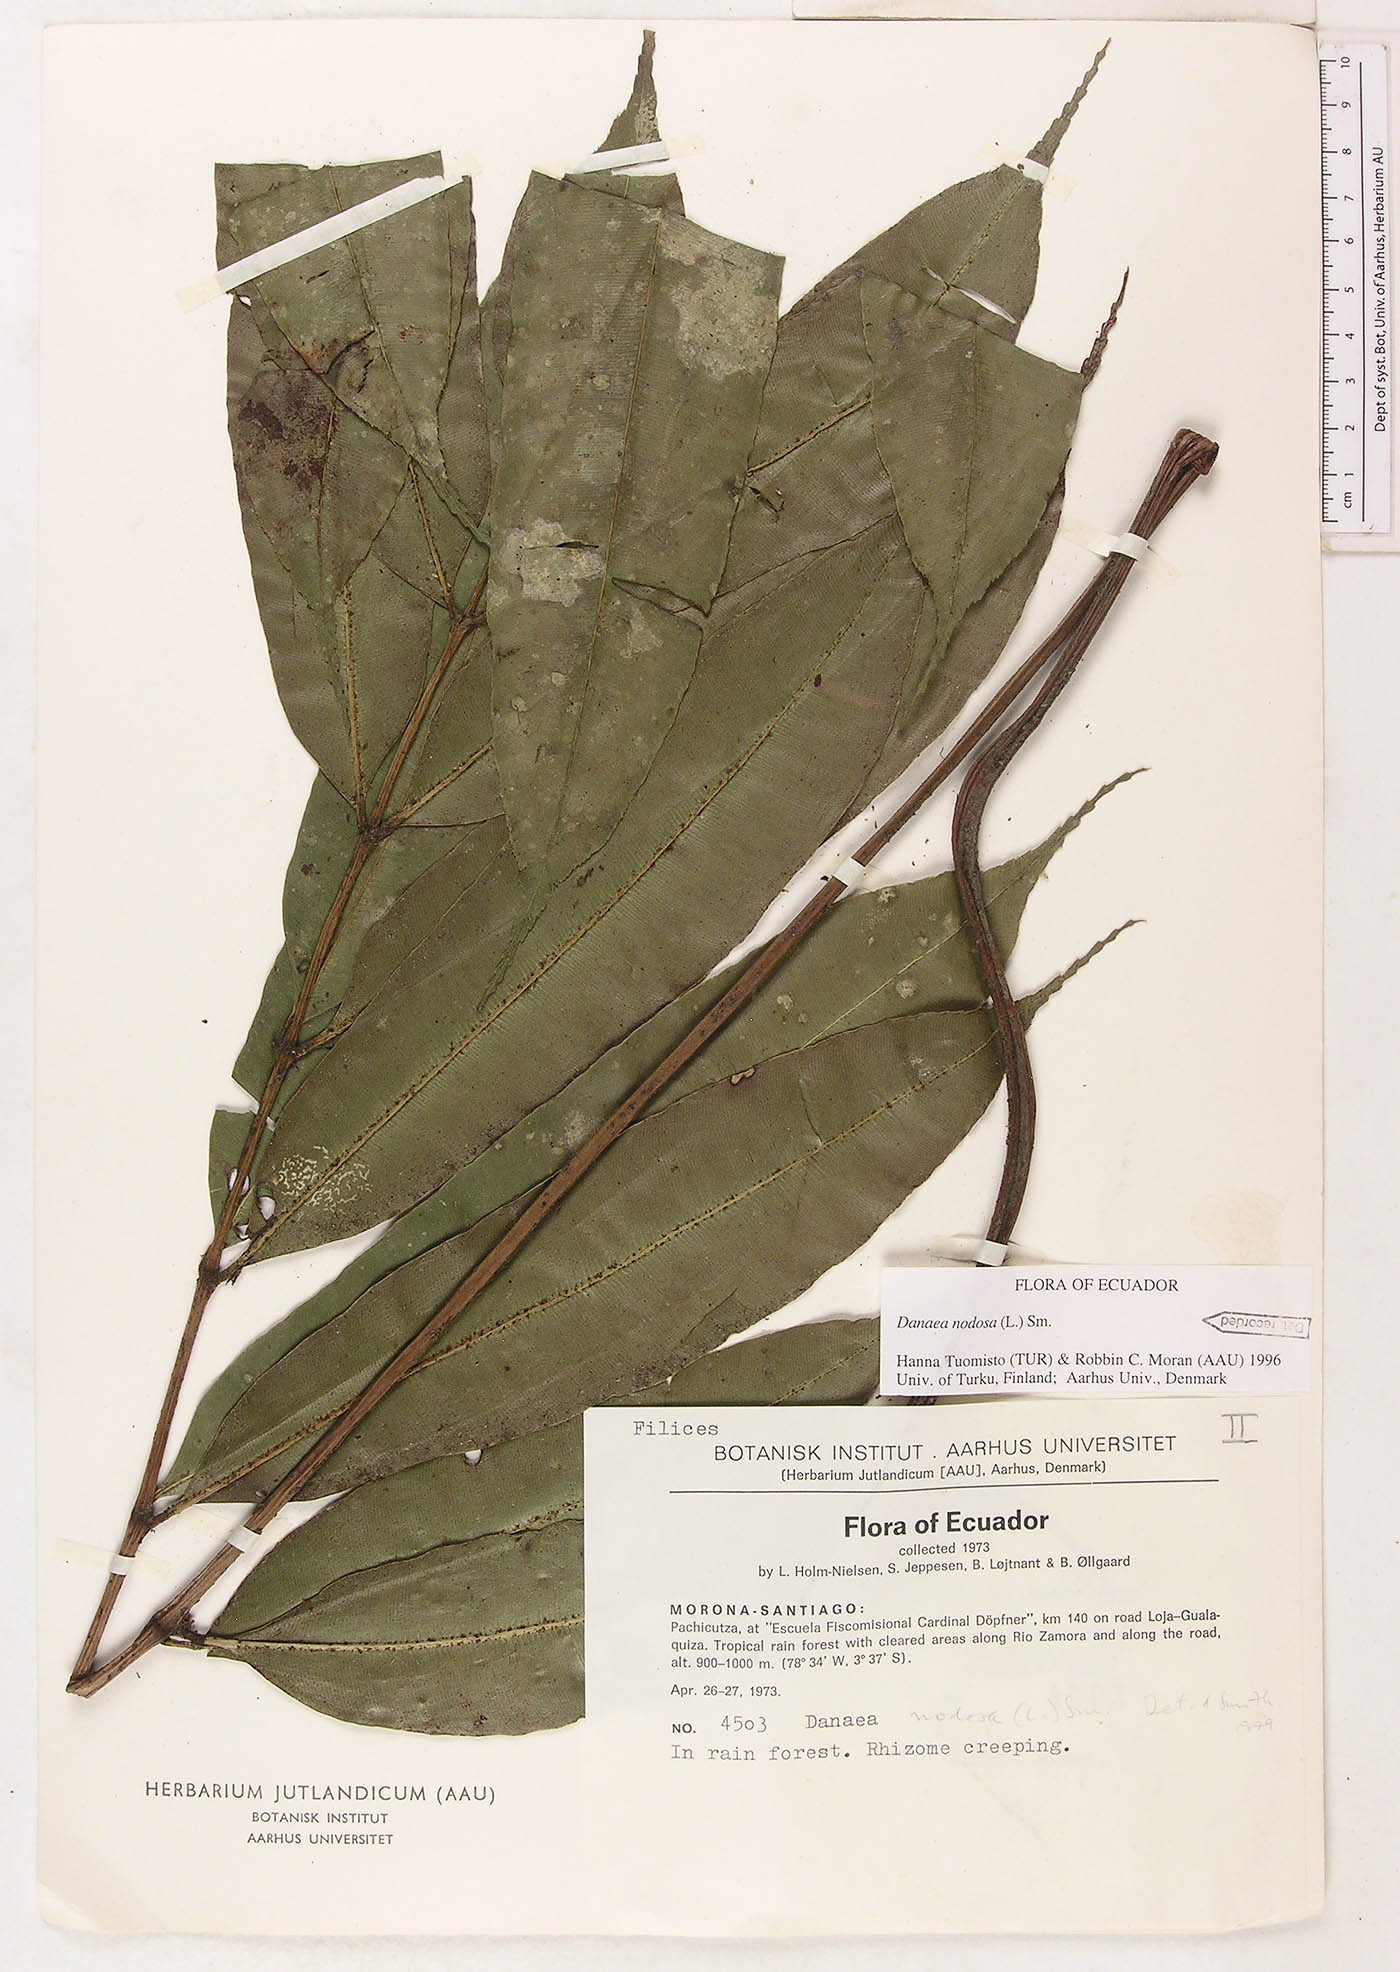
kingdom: Plantae
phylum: Tracheophyta
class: Polypodiopsida
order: Marattiales
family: Marattiaceae
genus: Danaea
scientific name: Danaea nodosa
